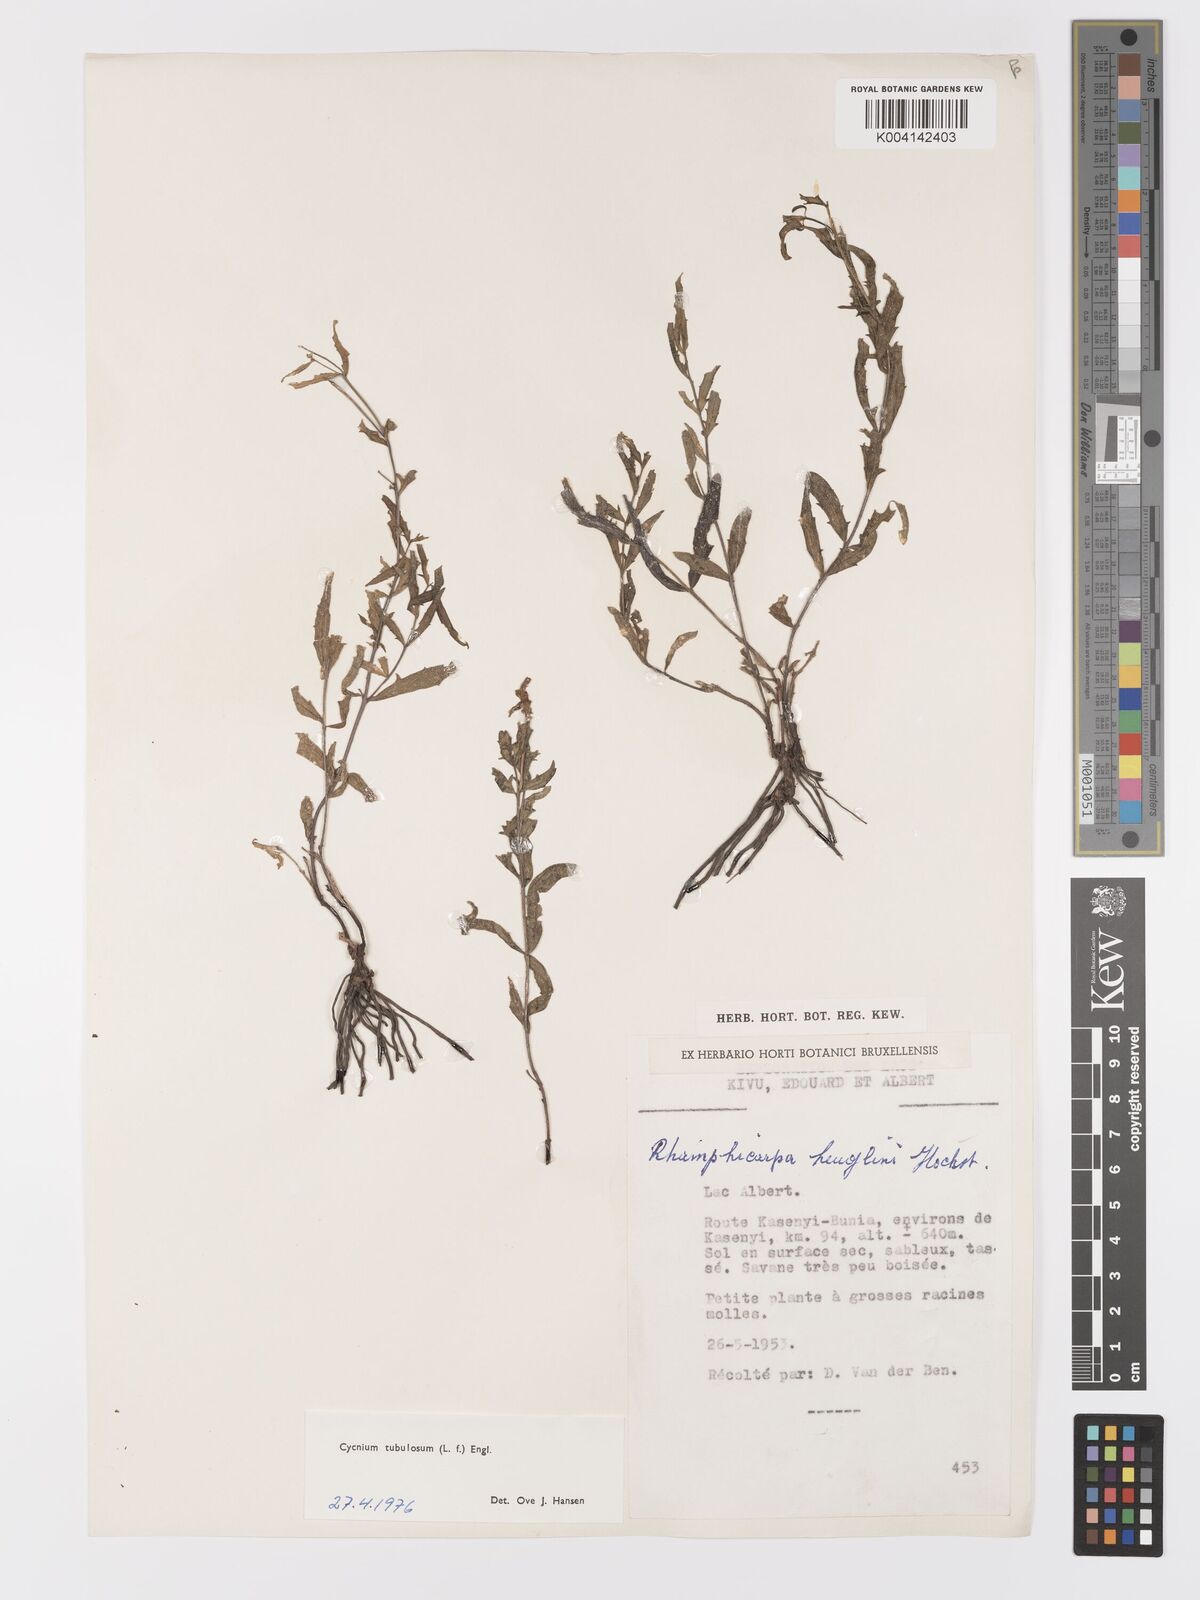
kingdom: Plantae
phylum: Tracheophyta
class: Magnoliopsida
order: Lamiales
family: Orobanchaceae
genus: Cycnium
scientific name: Cycnium tubulosum
